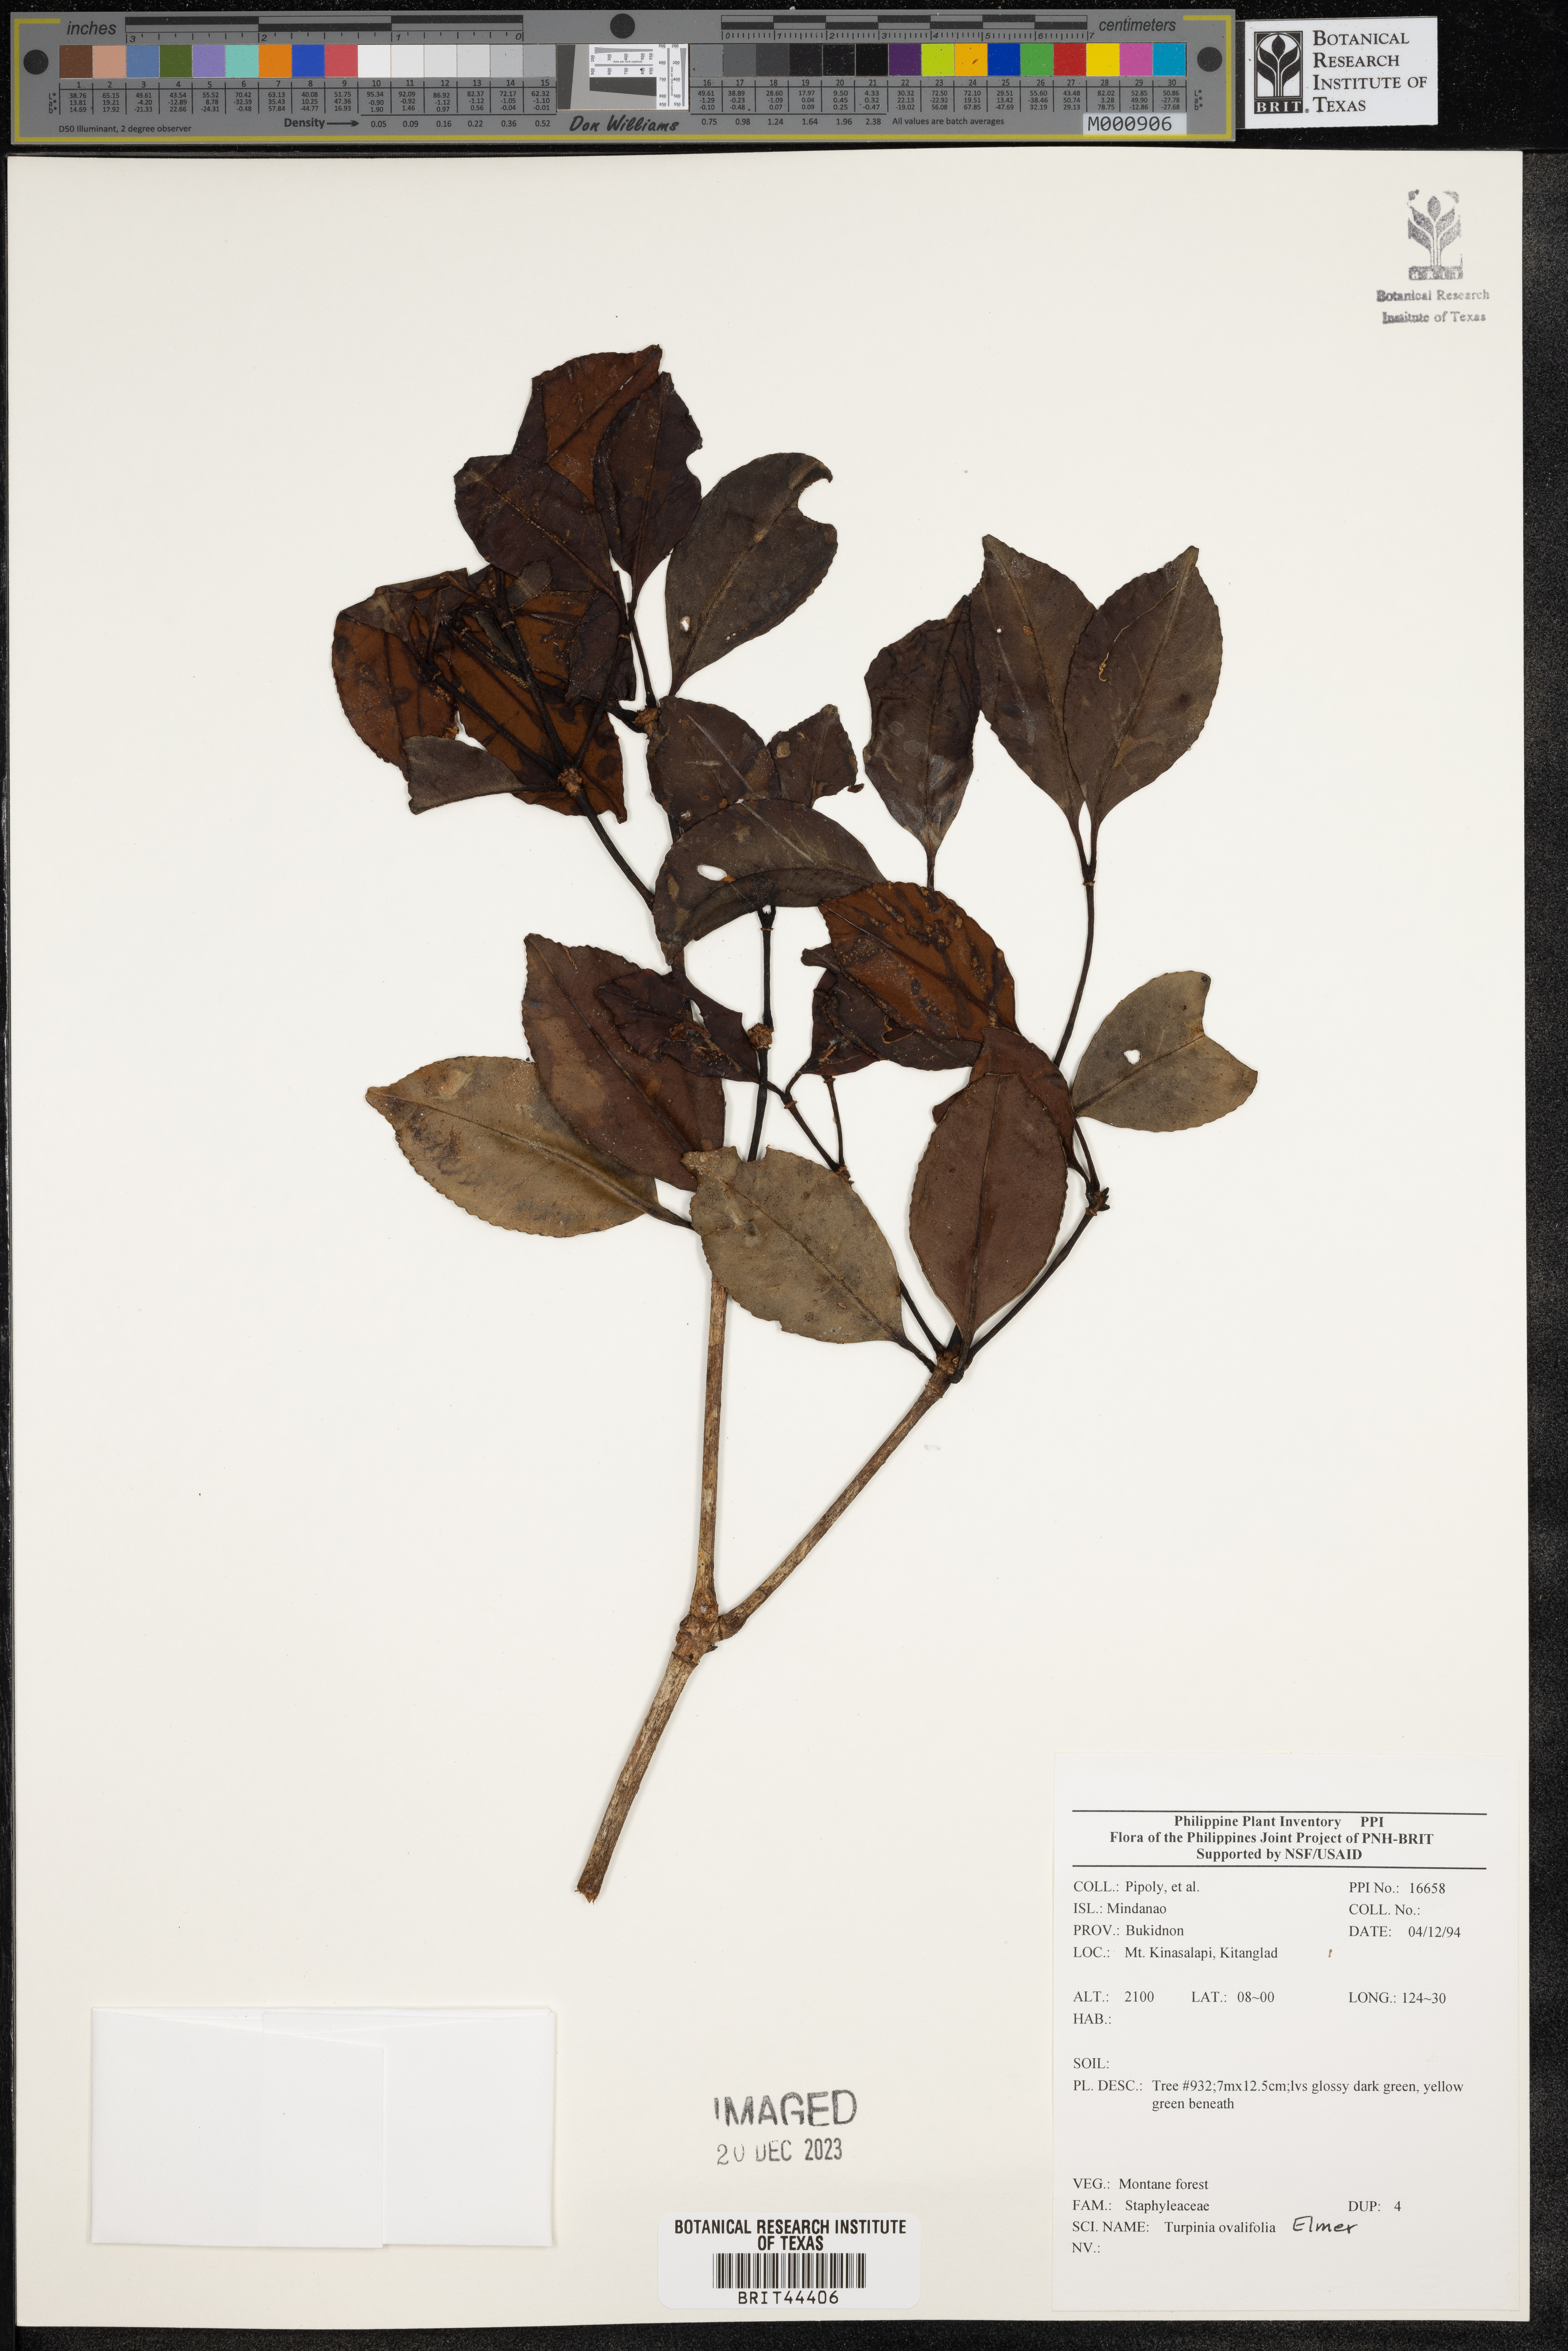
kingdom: Plantae
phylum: Tracheophyta
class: Magnoliopsida
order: Crossosomatales
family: Staphyleaceae
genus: Dalrympelea
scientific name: Dalrympelea trifoliata
